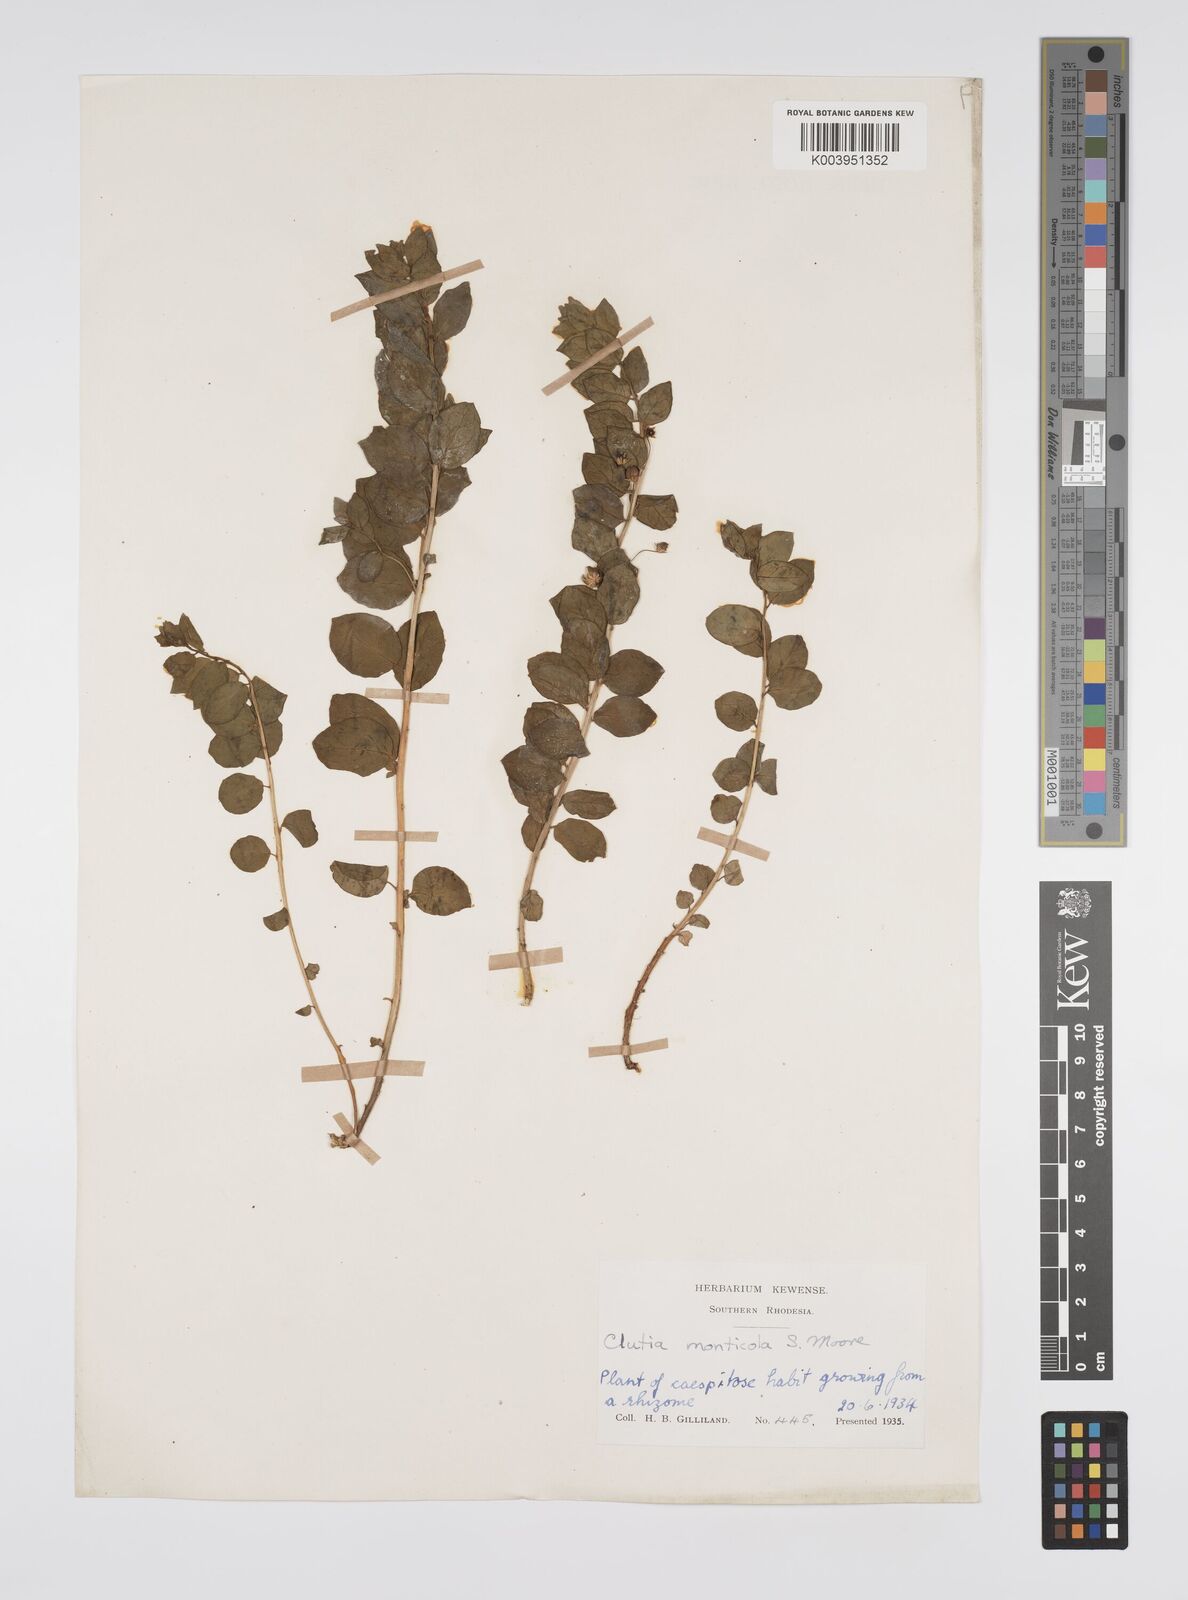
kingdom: Plantae
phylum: Tracheophyta
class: Magnoliopsida
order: Malpighiales
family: Peraceae
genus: Clutia
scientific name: Clutia monticola
